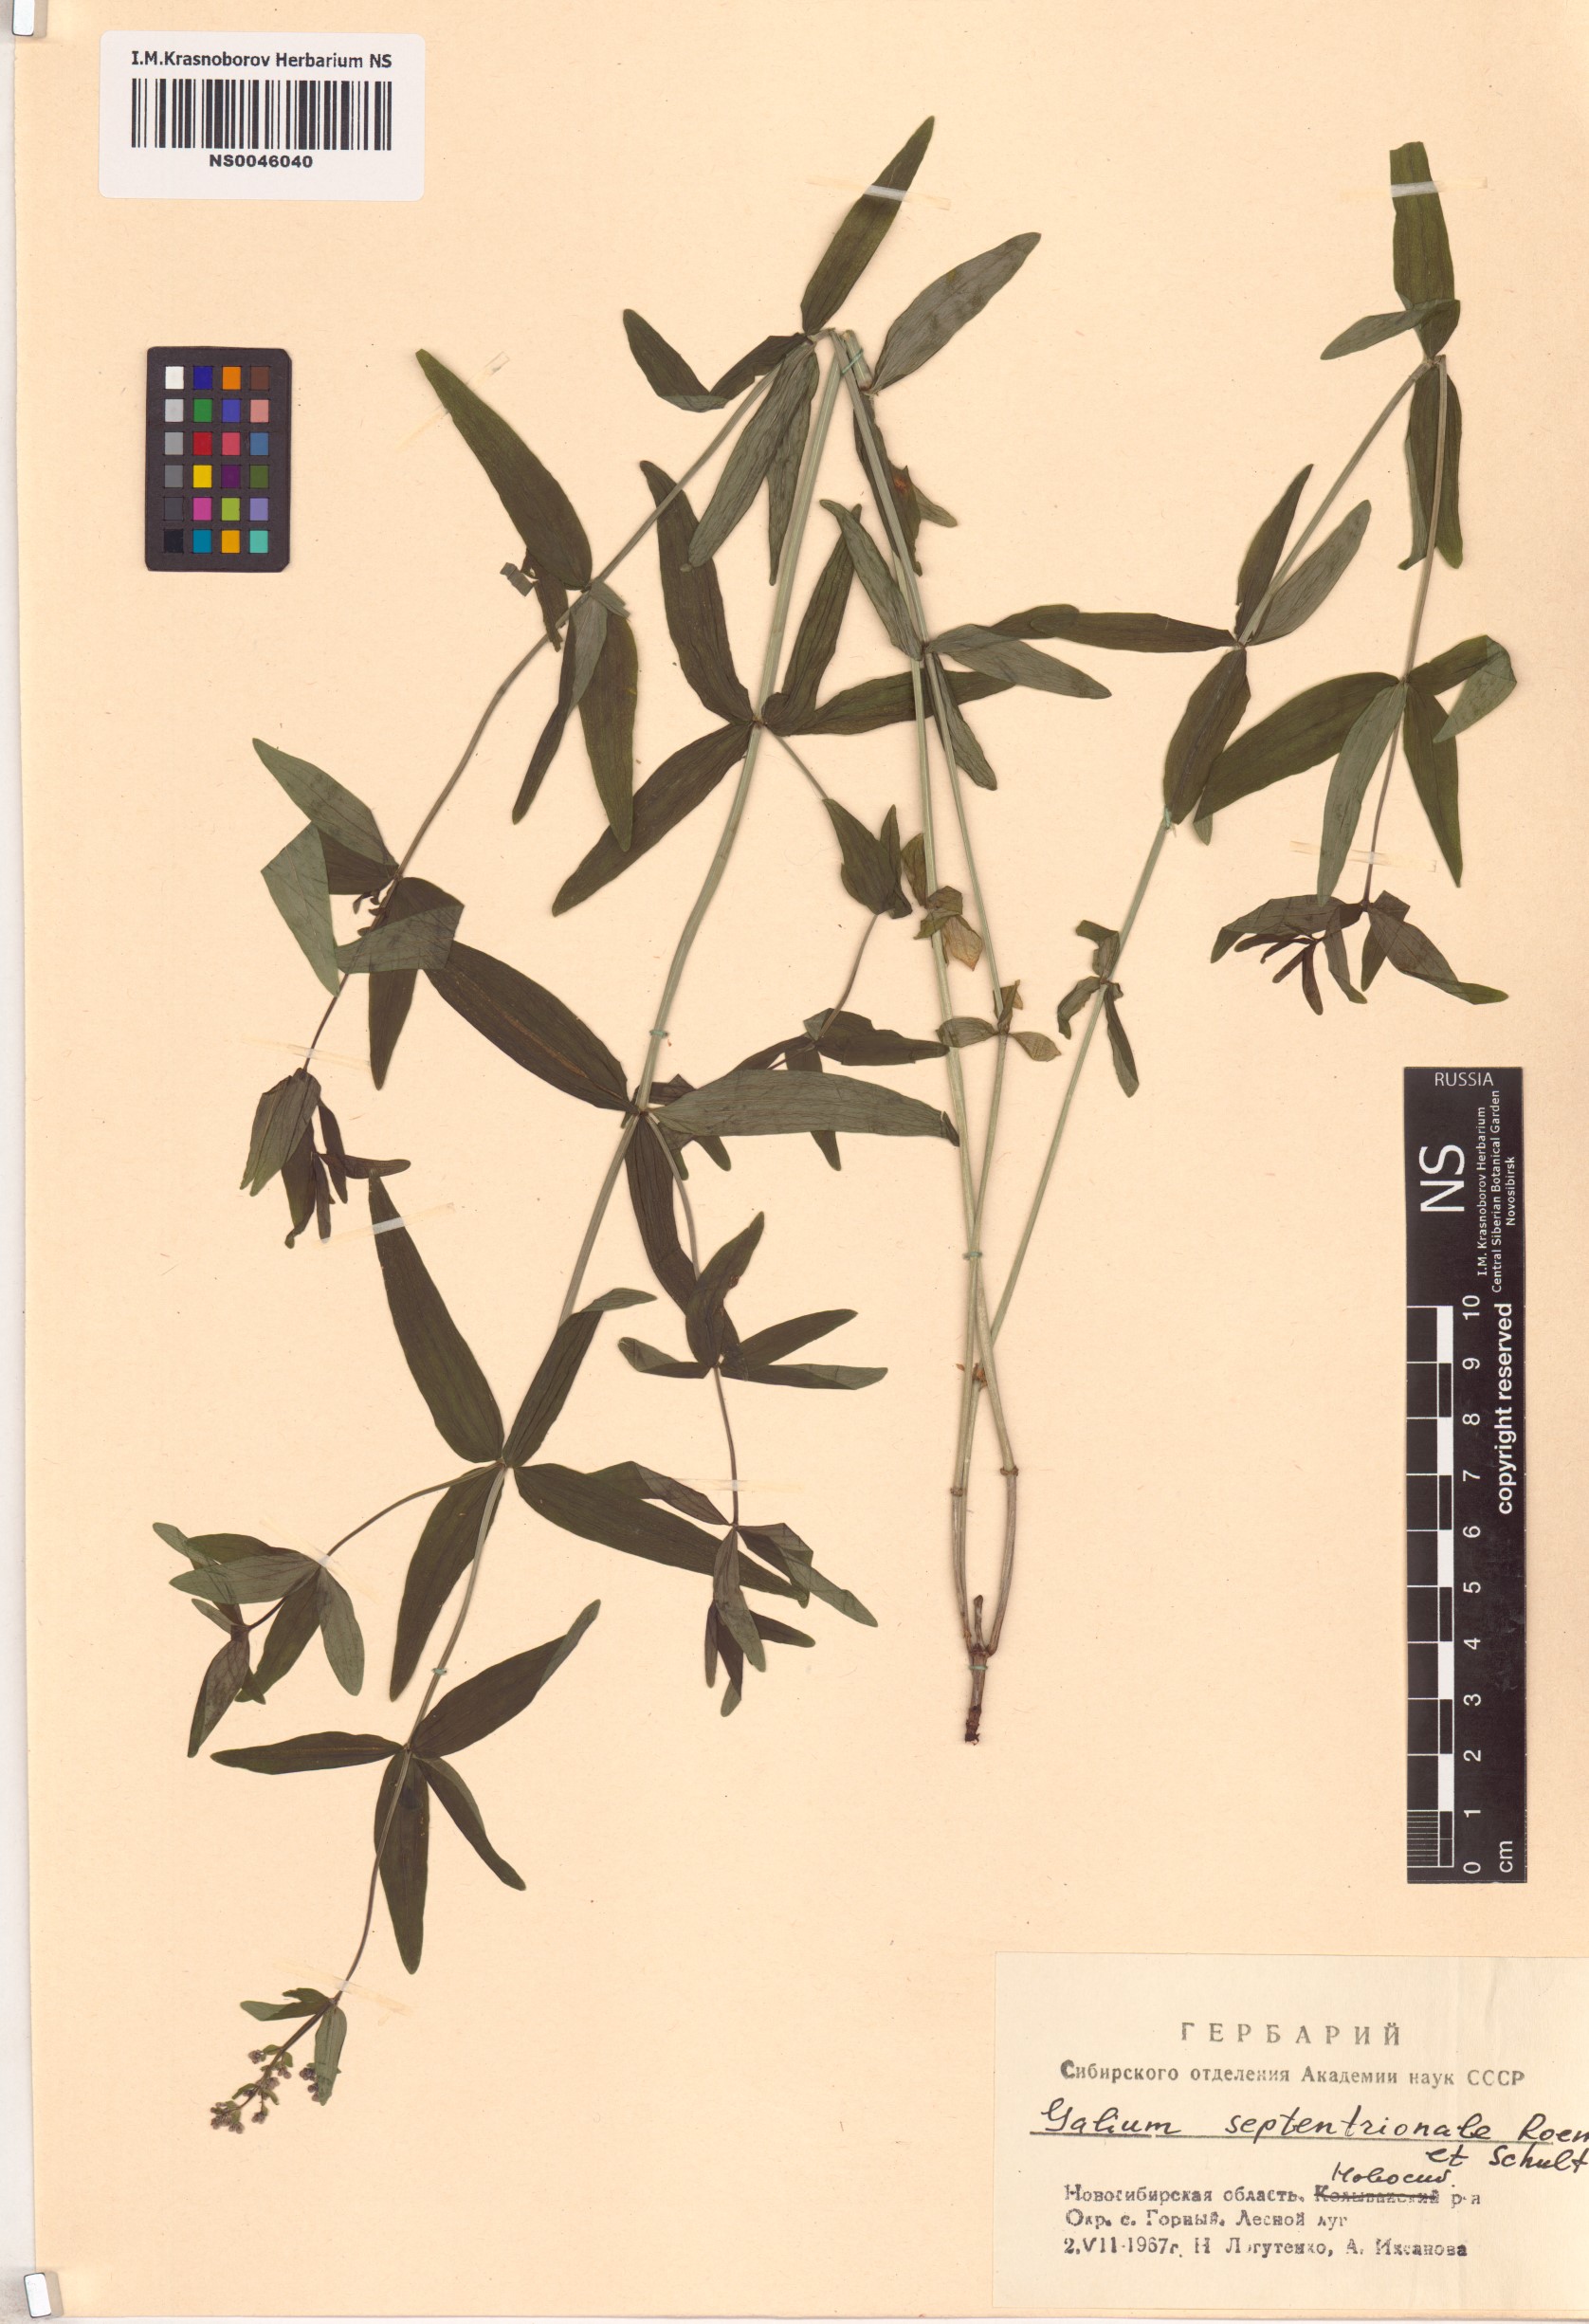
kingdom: Plantae
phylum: Tracheophyta
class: Magnoliopsida
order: Gentianales
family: Rubiaceae
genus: Galium
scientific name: Galium boreale
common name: Northern bedstraw
